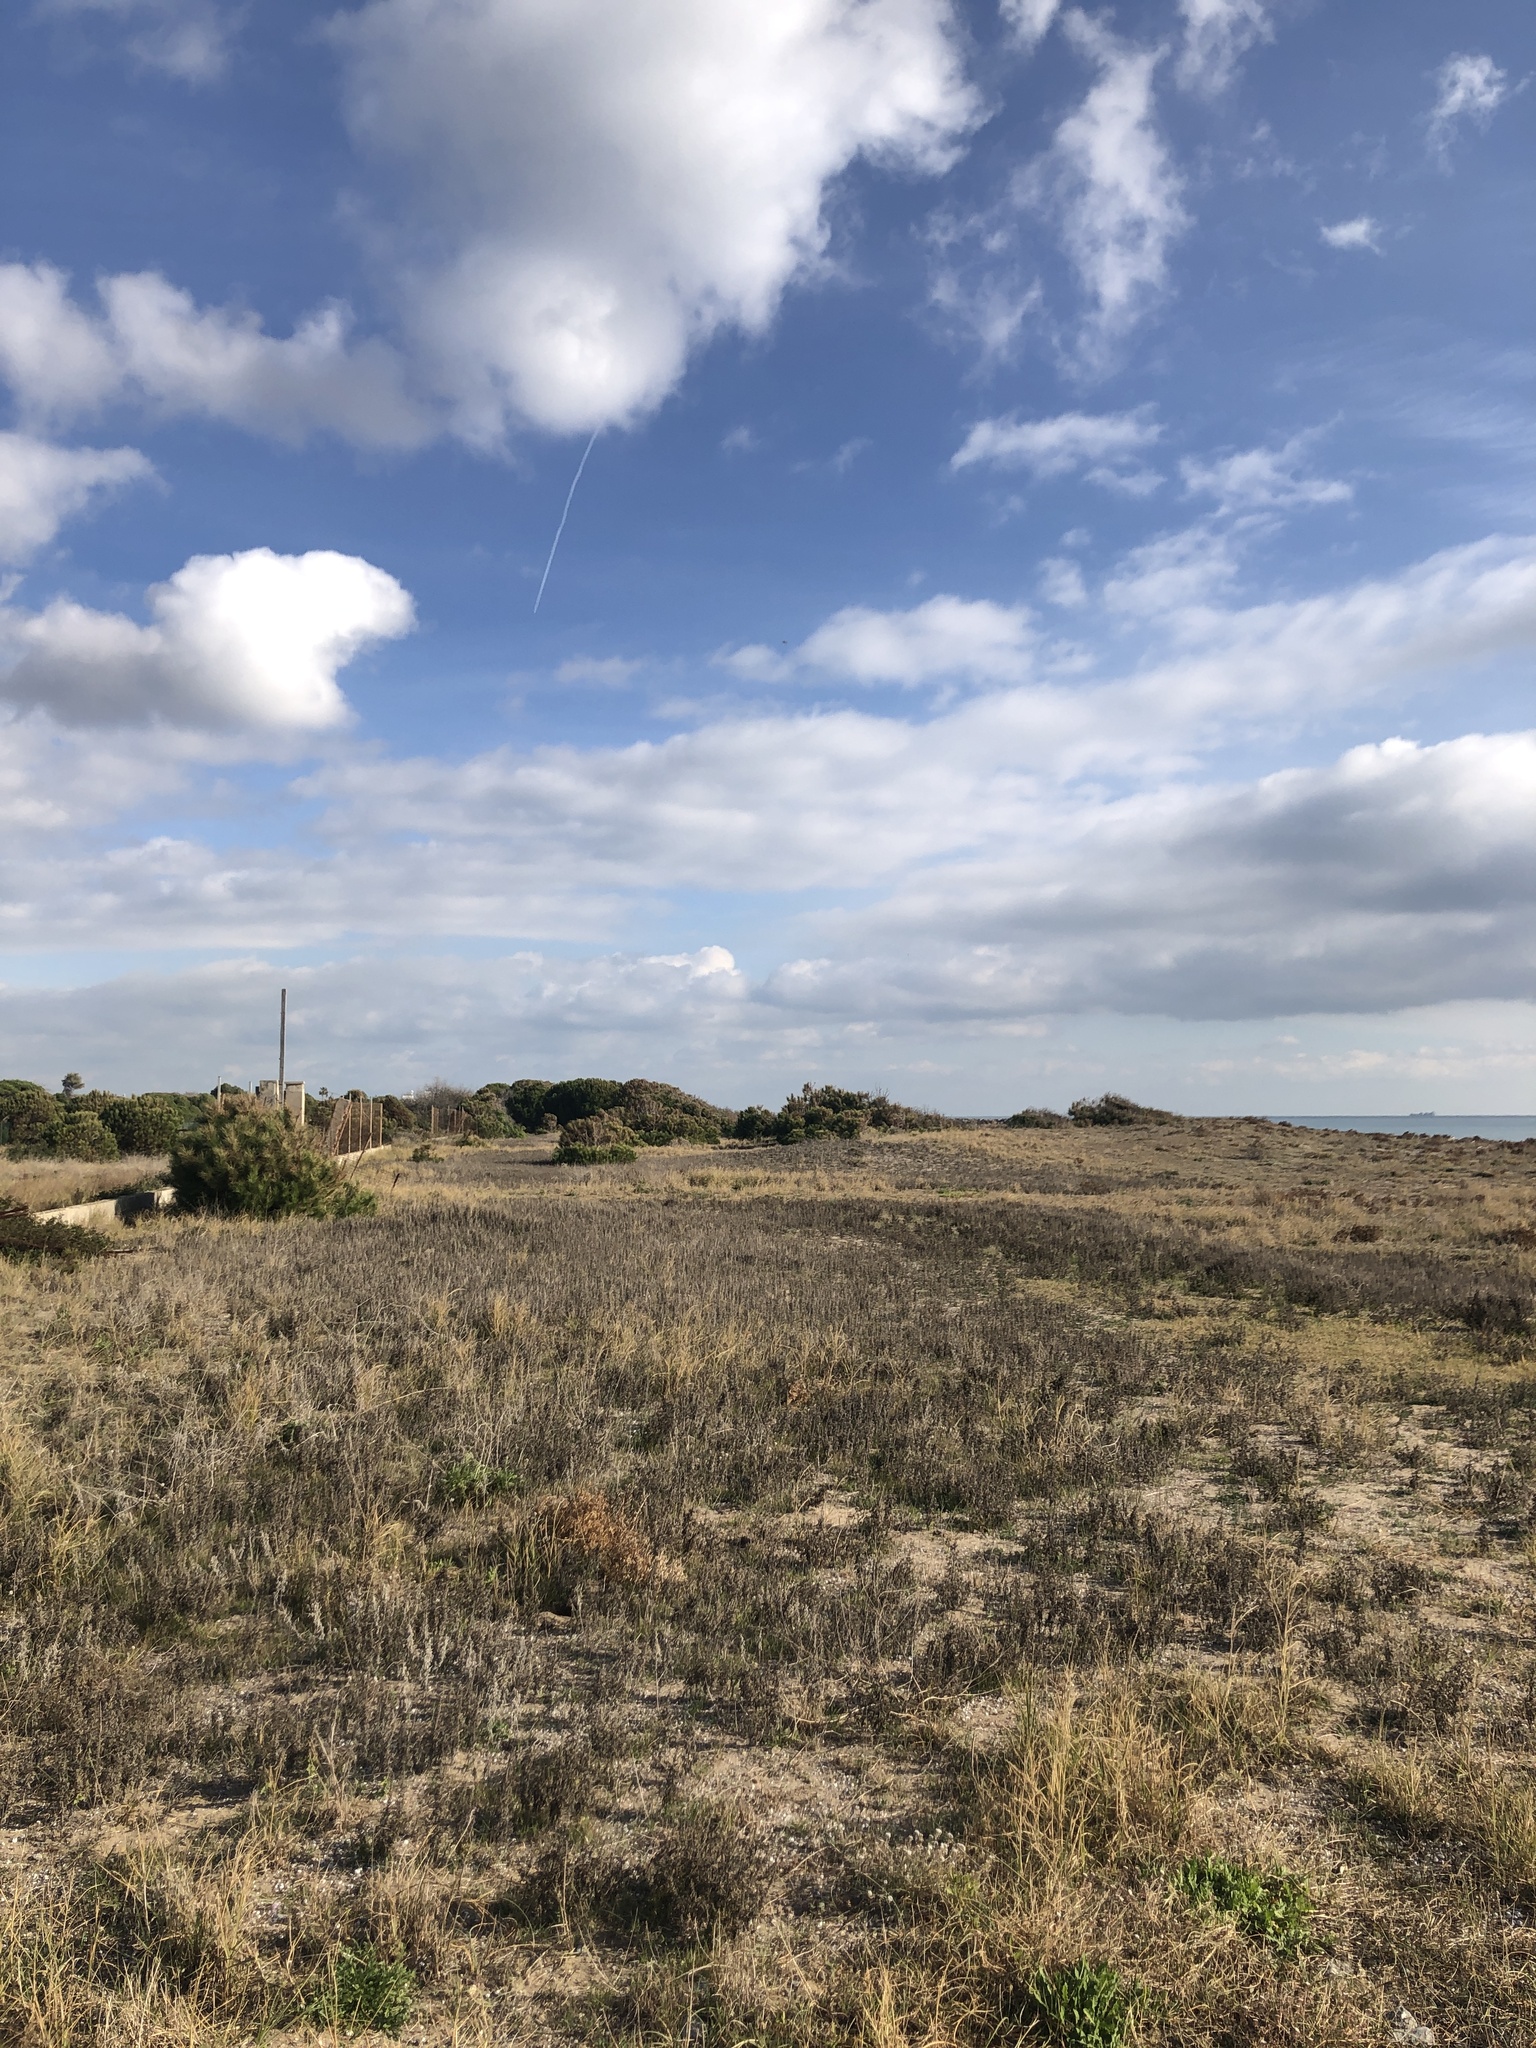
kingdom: Plantae
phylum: Tracheophyta
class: Magnoliopsida
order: Asterales
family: Asteraceae
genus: Ambrosia
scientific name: Ambrosia psilostachya
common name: Perennial ragweed
